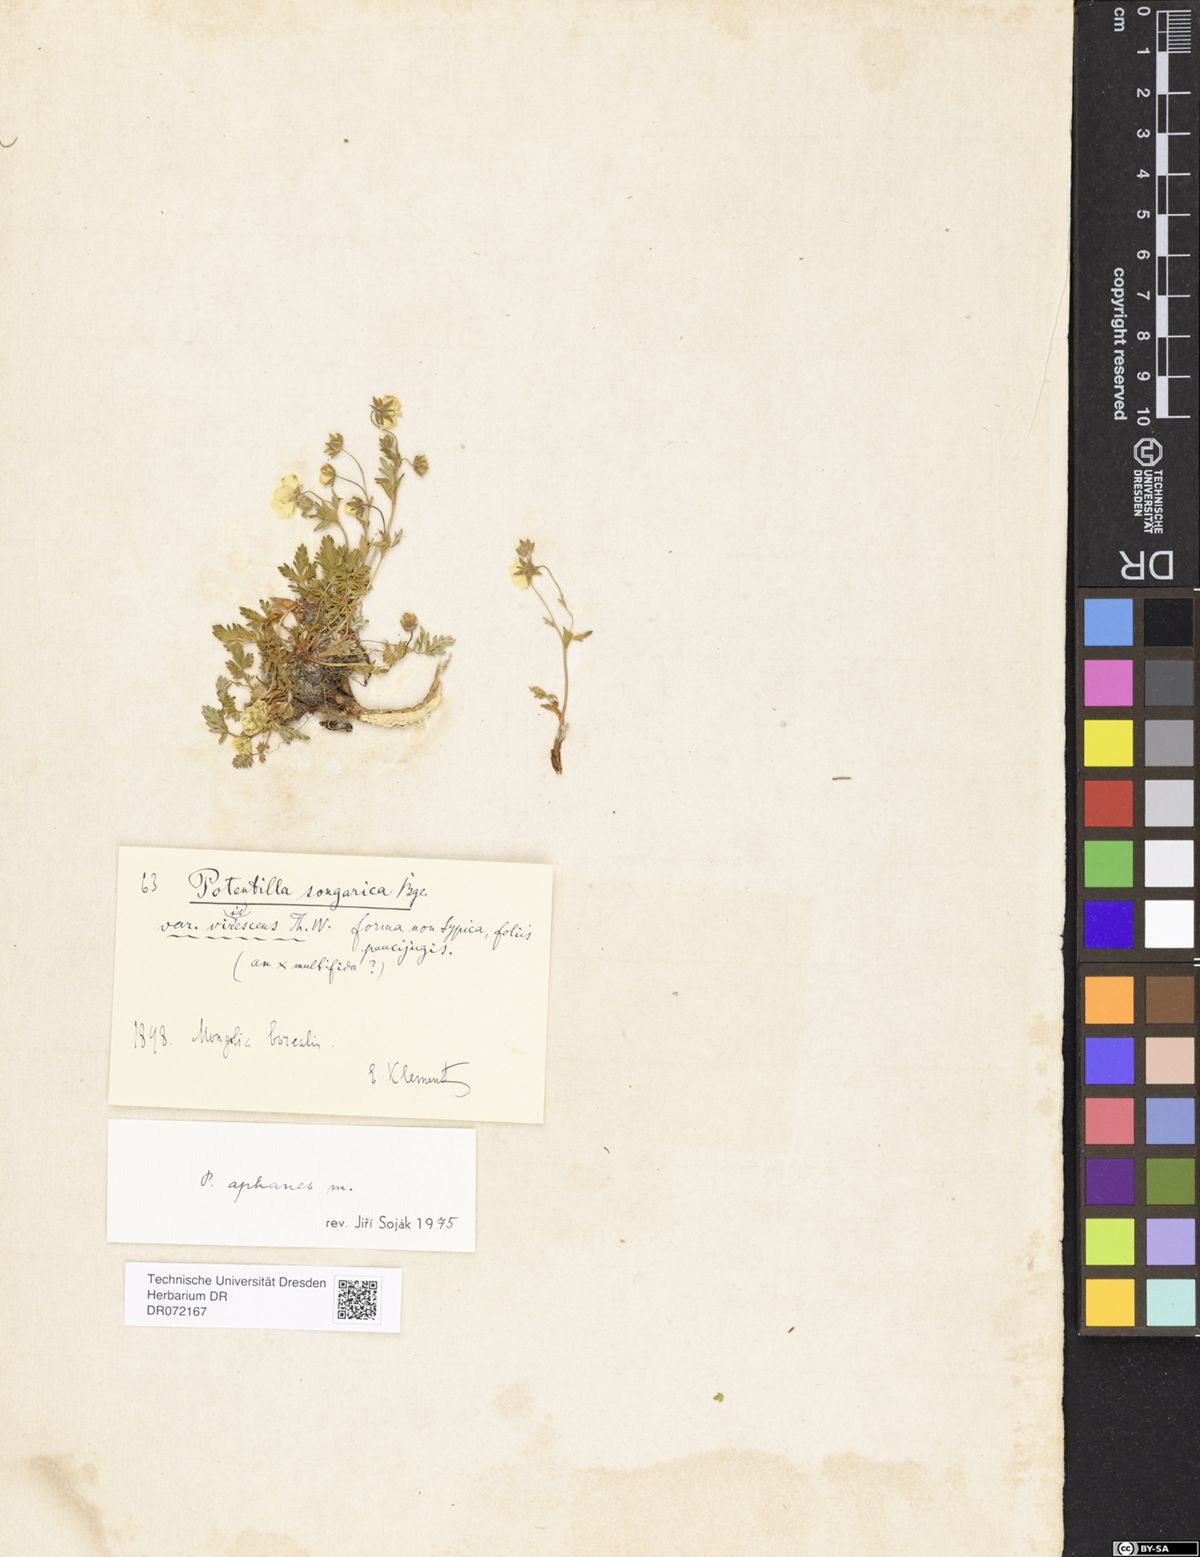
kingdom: Plantae
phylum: Tracheophyta
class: Magnoliopsida
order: Rosales
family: Rosaceae
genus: Potentilla
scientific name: Potentilla aphanes
